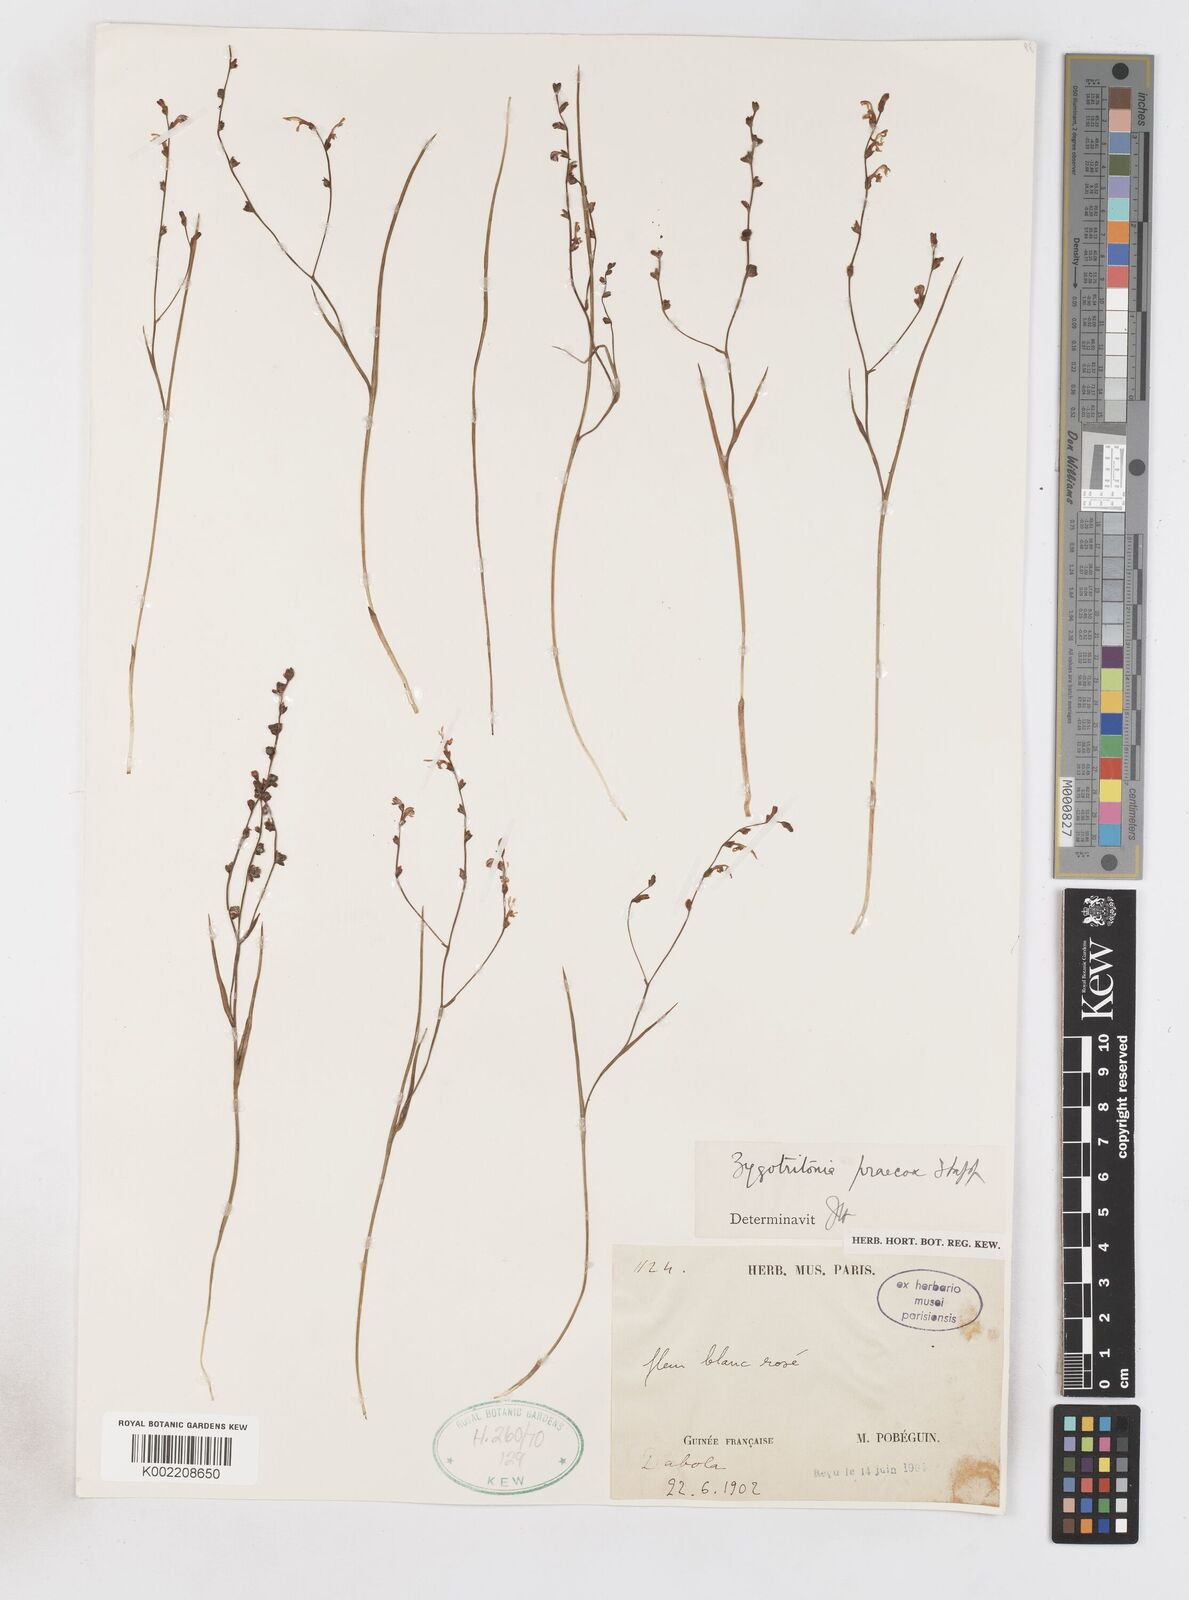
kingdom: Plantae
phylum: Tracheophyta
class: Liliopsida
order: Asparagales
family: Iridaceae
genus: Zygotritonia
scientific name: Zygotritonia praecox
